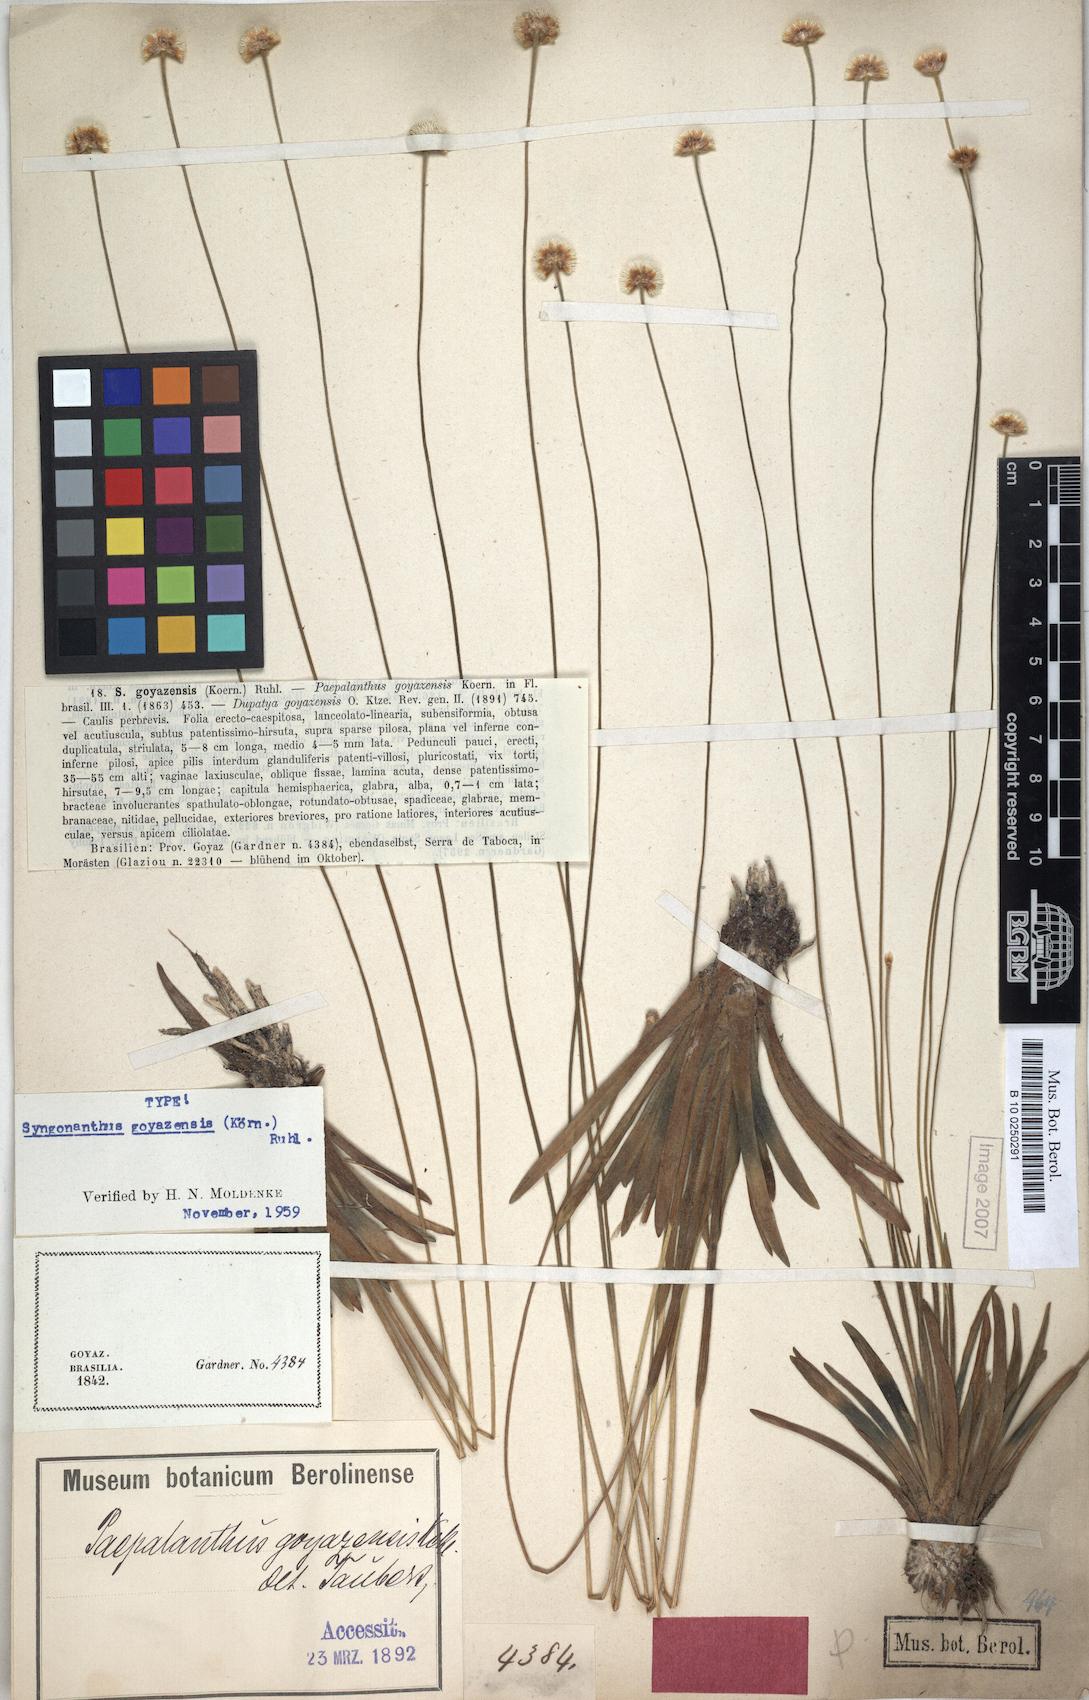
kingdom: Plantae
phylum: Tracheophyta
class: Liliopsida
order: Poales
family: Eriocaulaceae
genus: Syngonanthus
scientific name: Syngonanthus goyazensis
